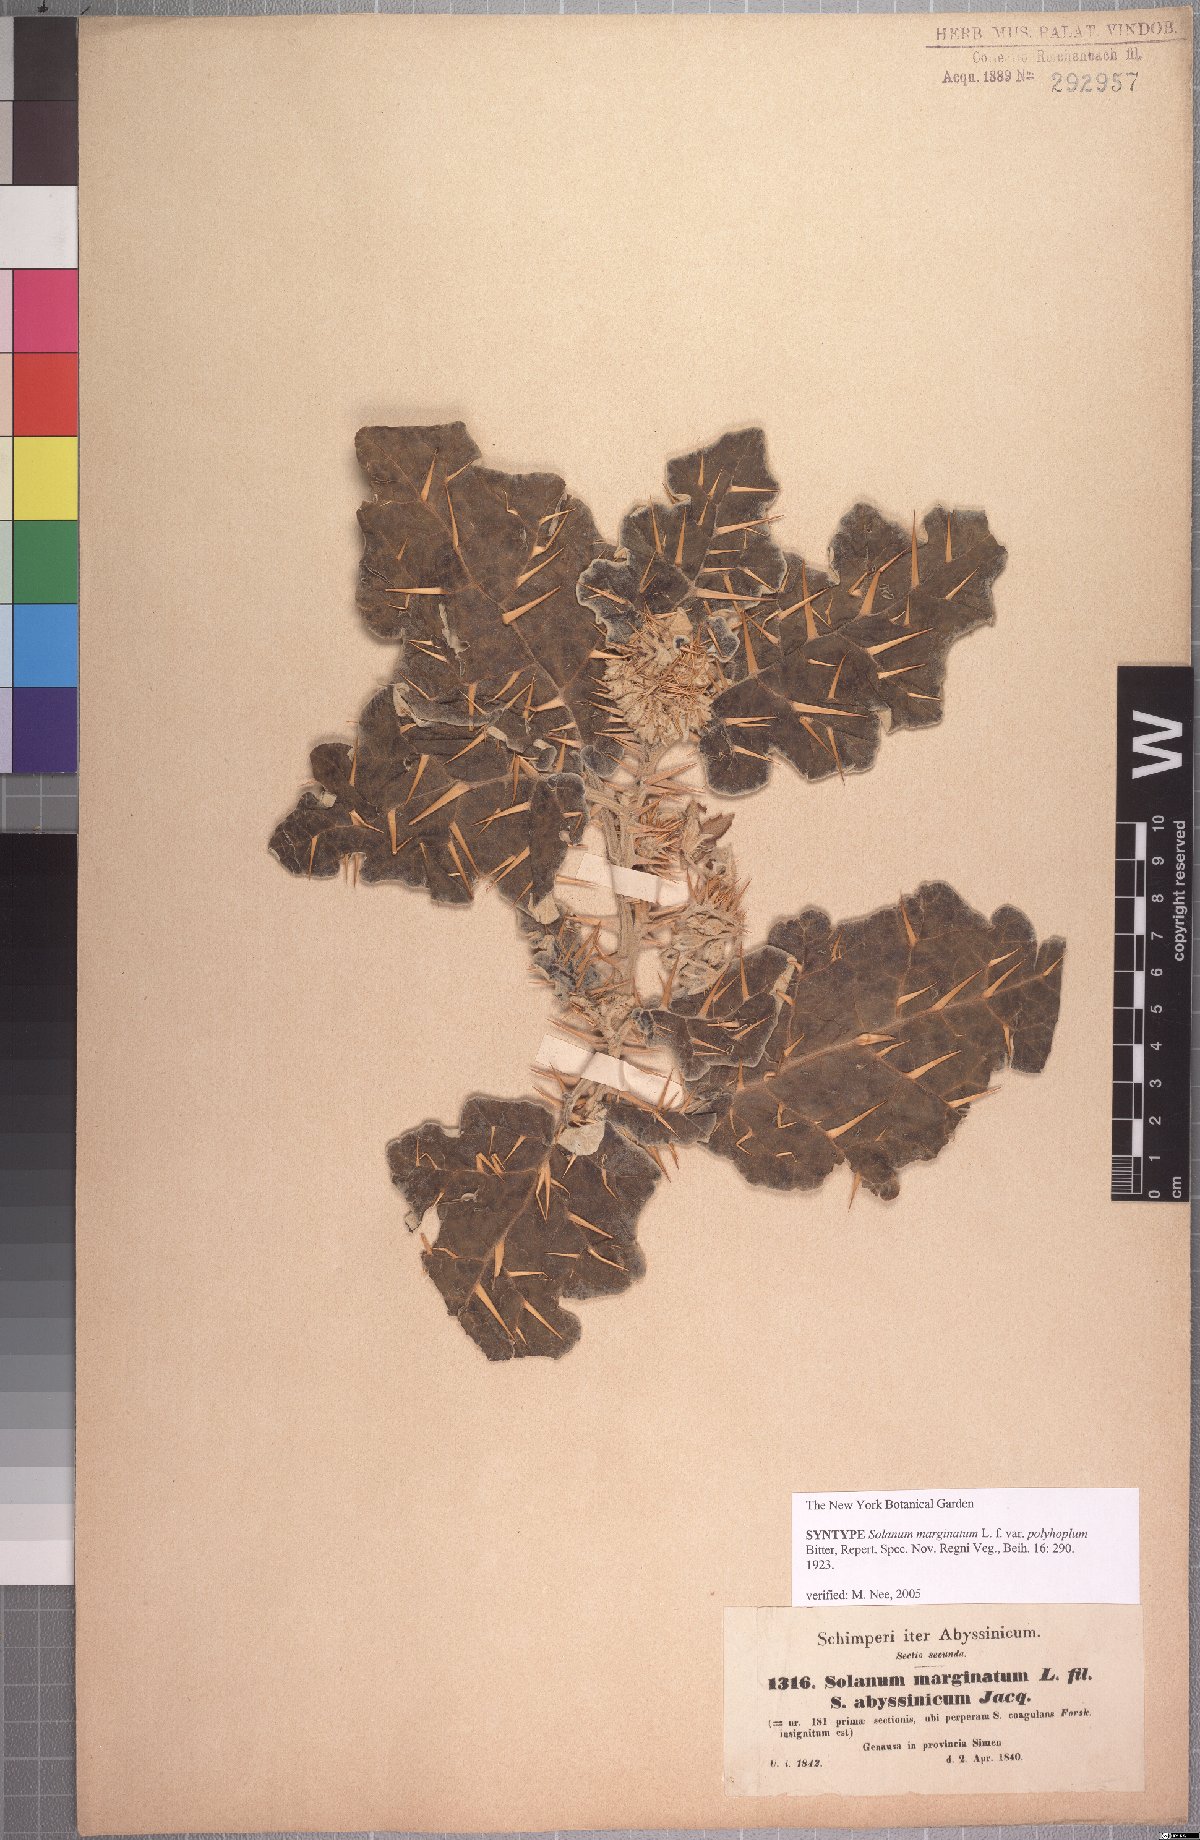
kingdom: Plantae
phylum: Tracheophyta
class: Magnoliopsida
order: Solanales
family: Solanaceae
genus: Solanum
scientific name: Solanum marginatum
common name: Purple african nightshade
